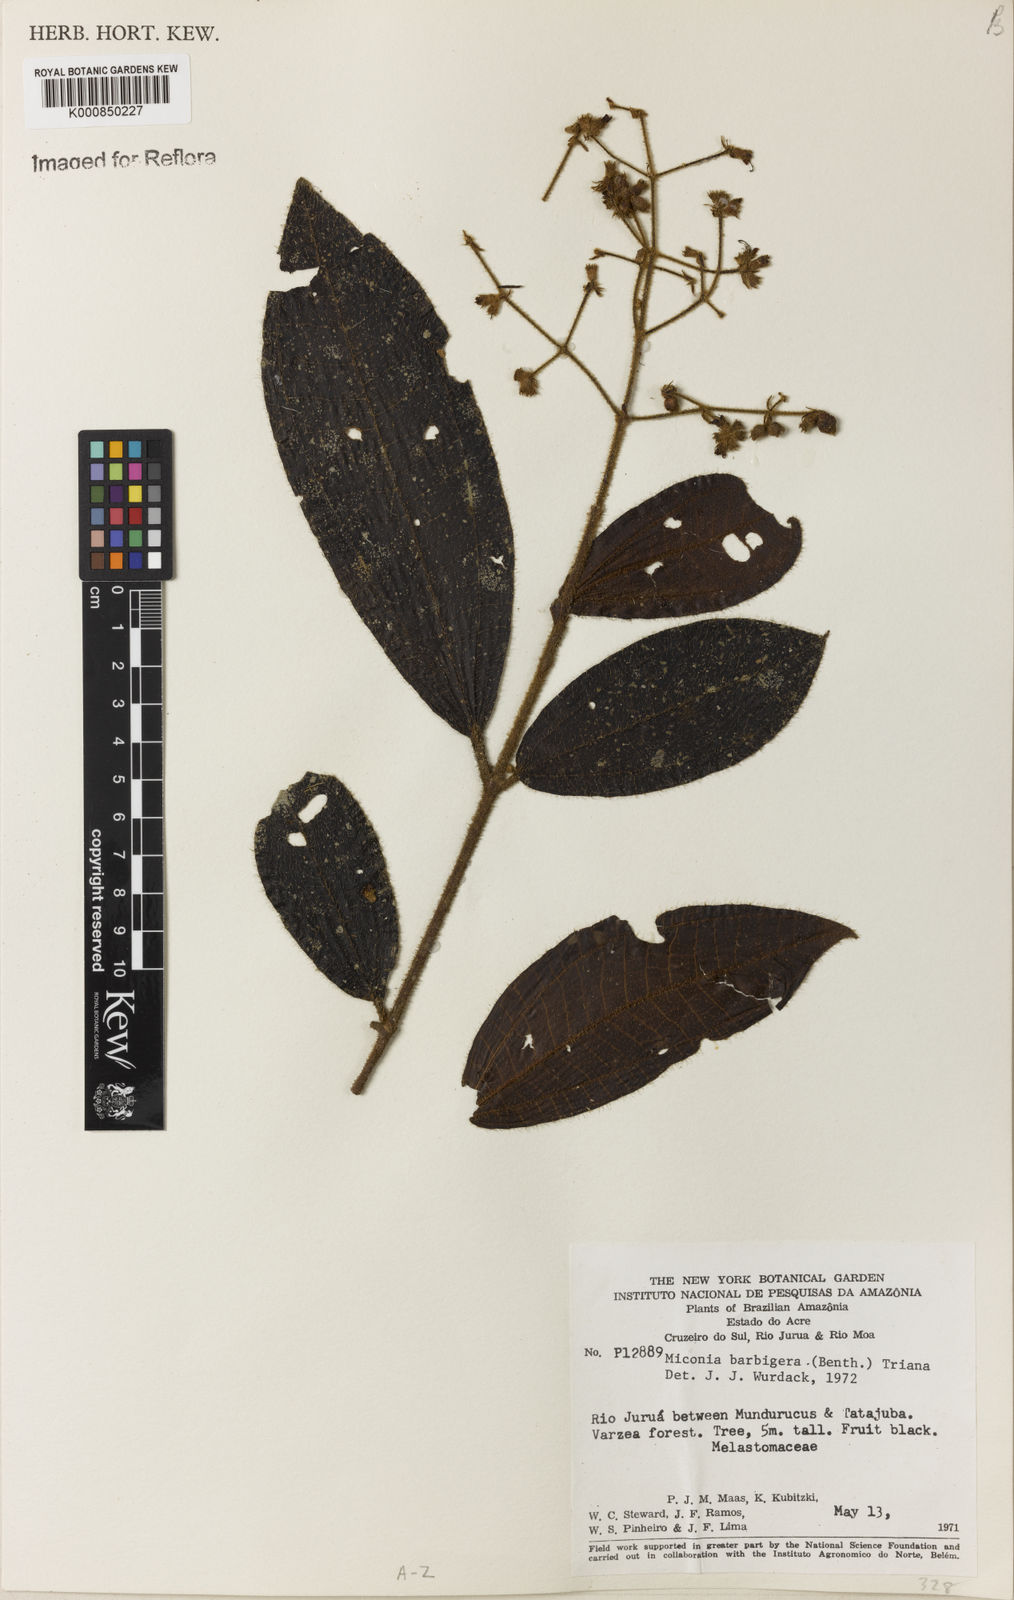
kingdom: Plantae
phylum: Tracheophyta
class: Magnoliopsida
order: Myrtales
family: Melastomataceae
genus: Miconia
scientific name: Miconia ciliata
